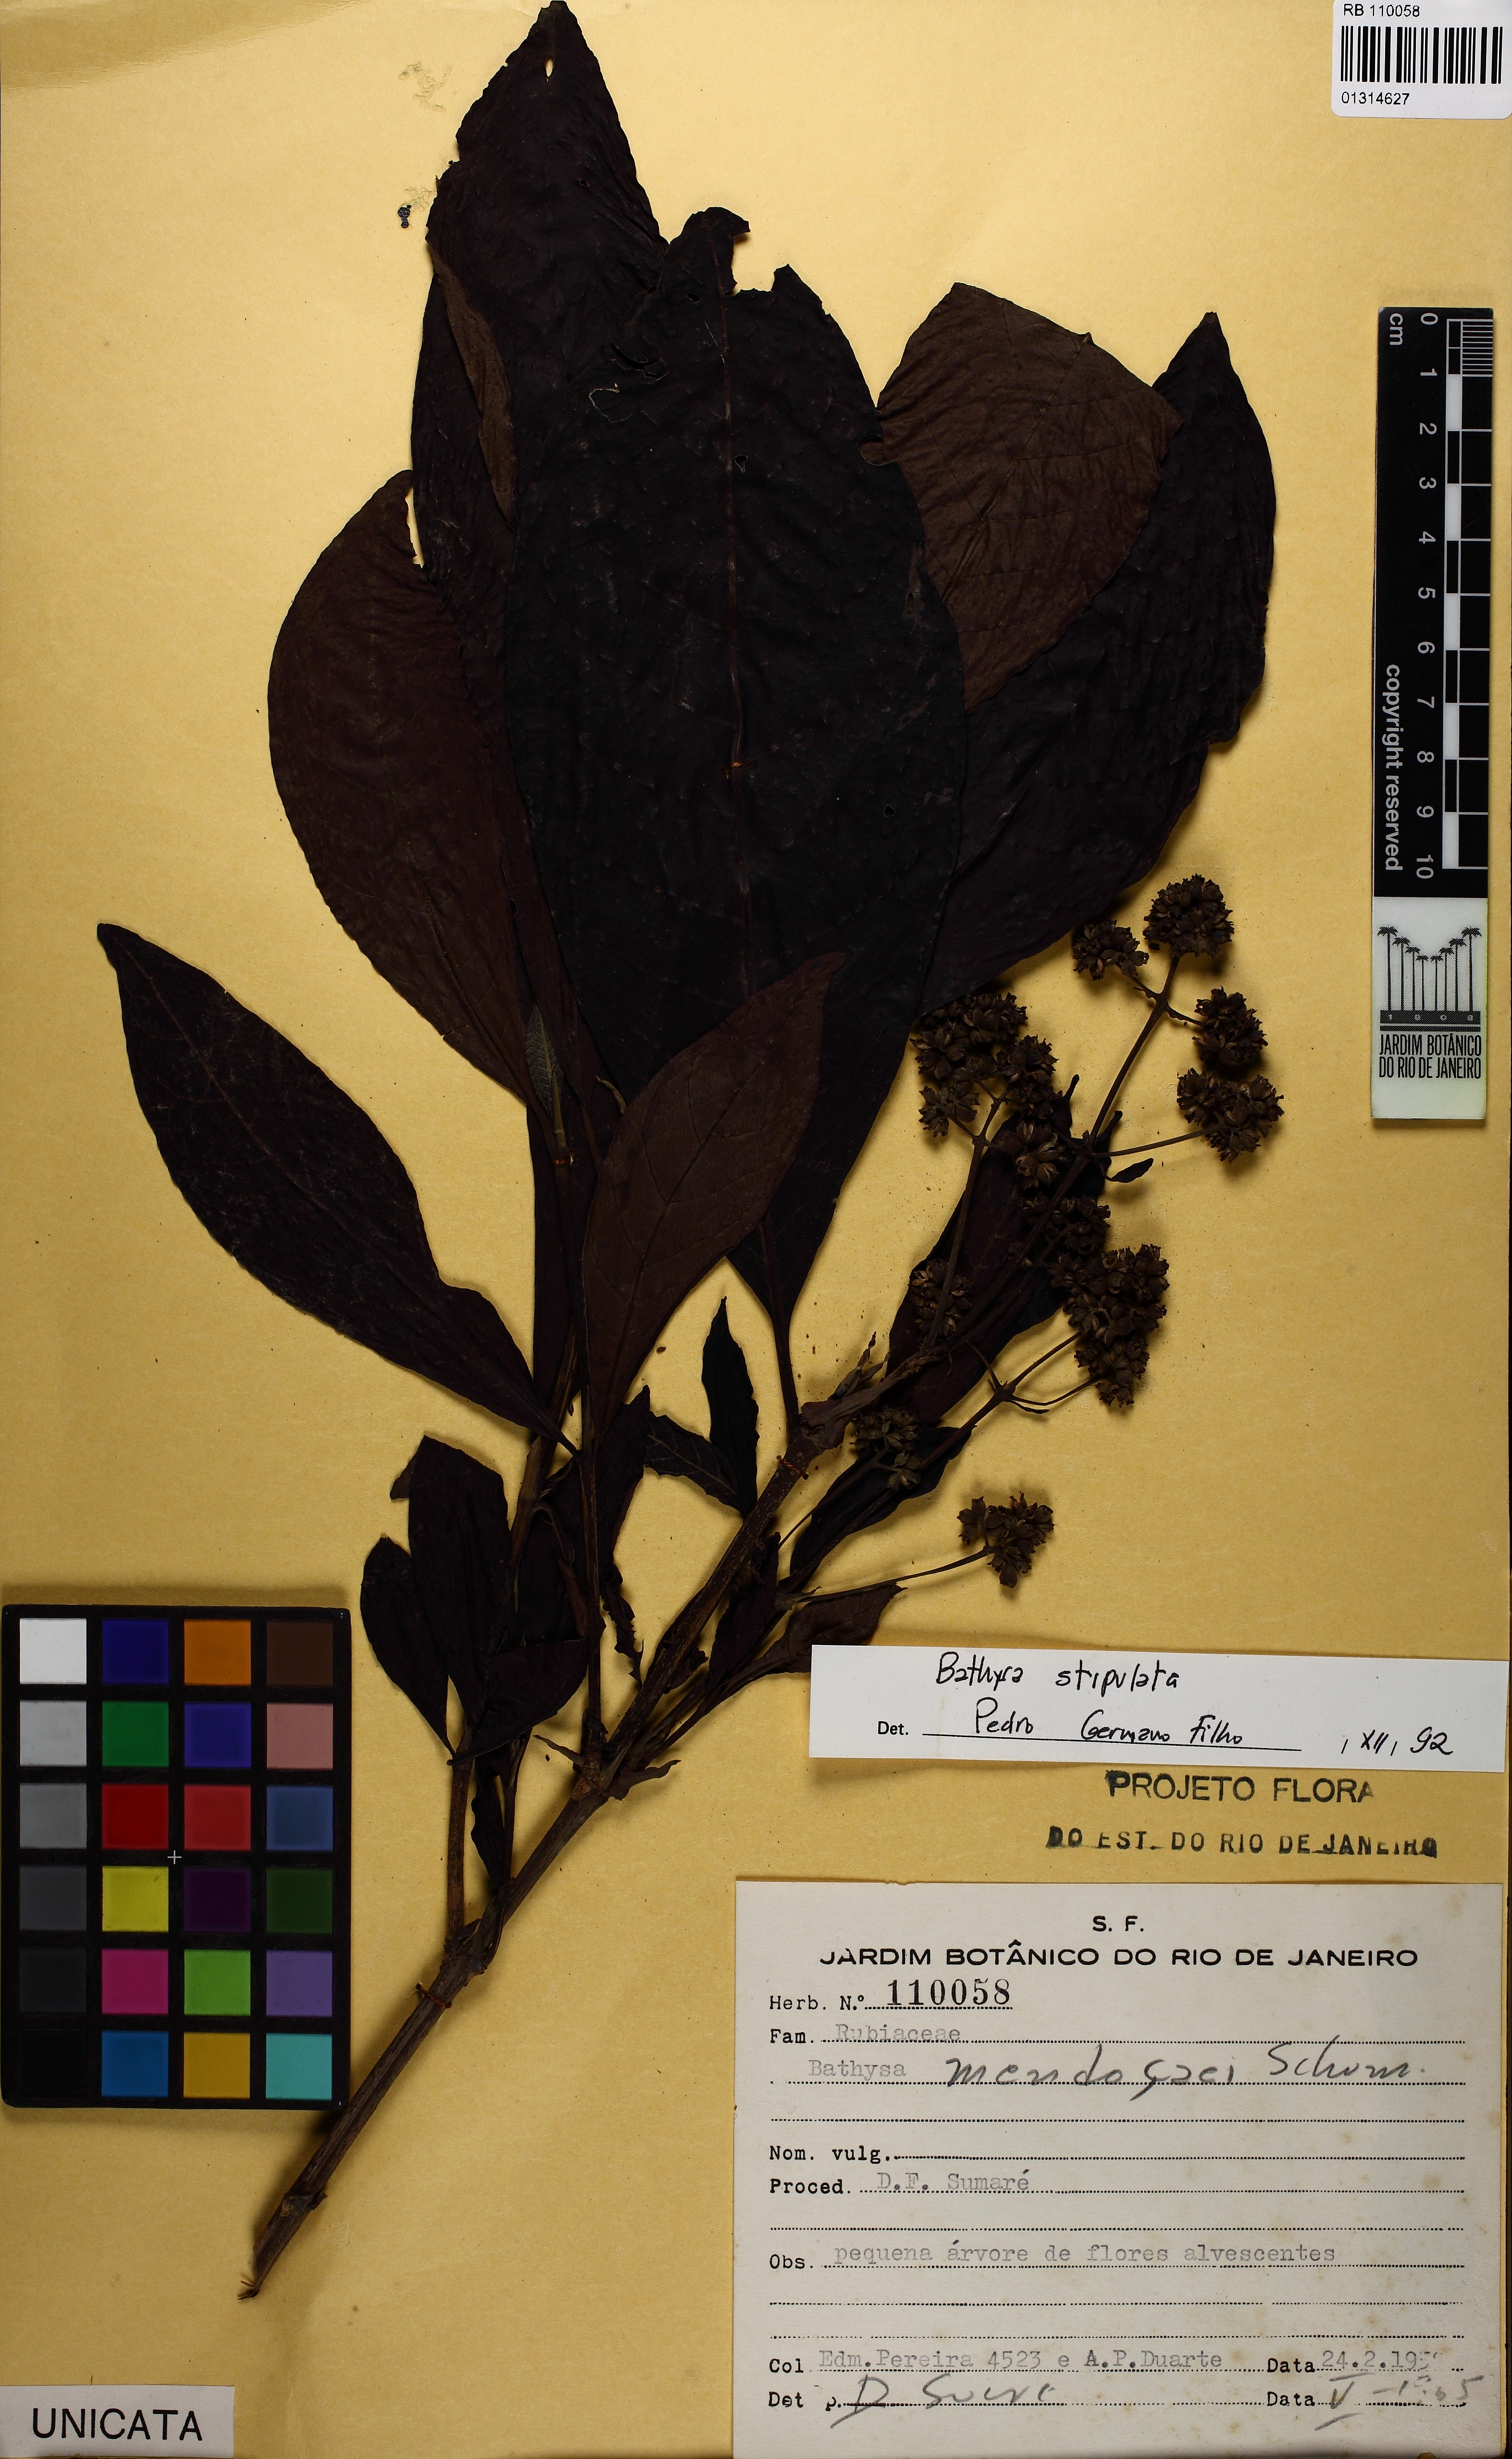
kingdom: Plantae
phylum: Tracheophyta
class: Magnoliopsida
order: Gentianales
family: Rubiaceae
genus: Bathysa
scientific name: Bathysa stipulata
